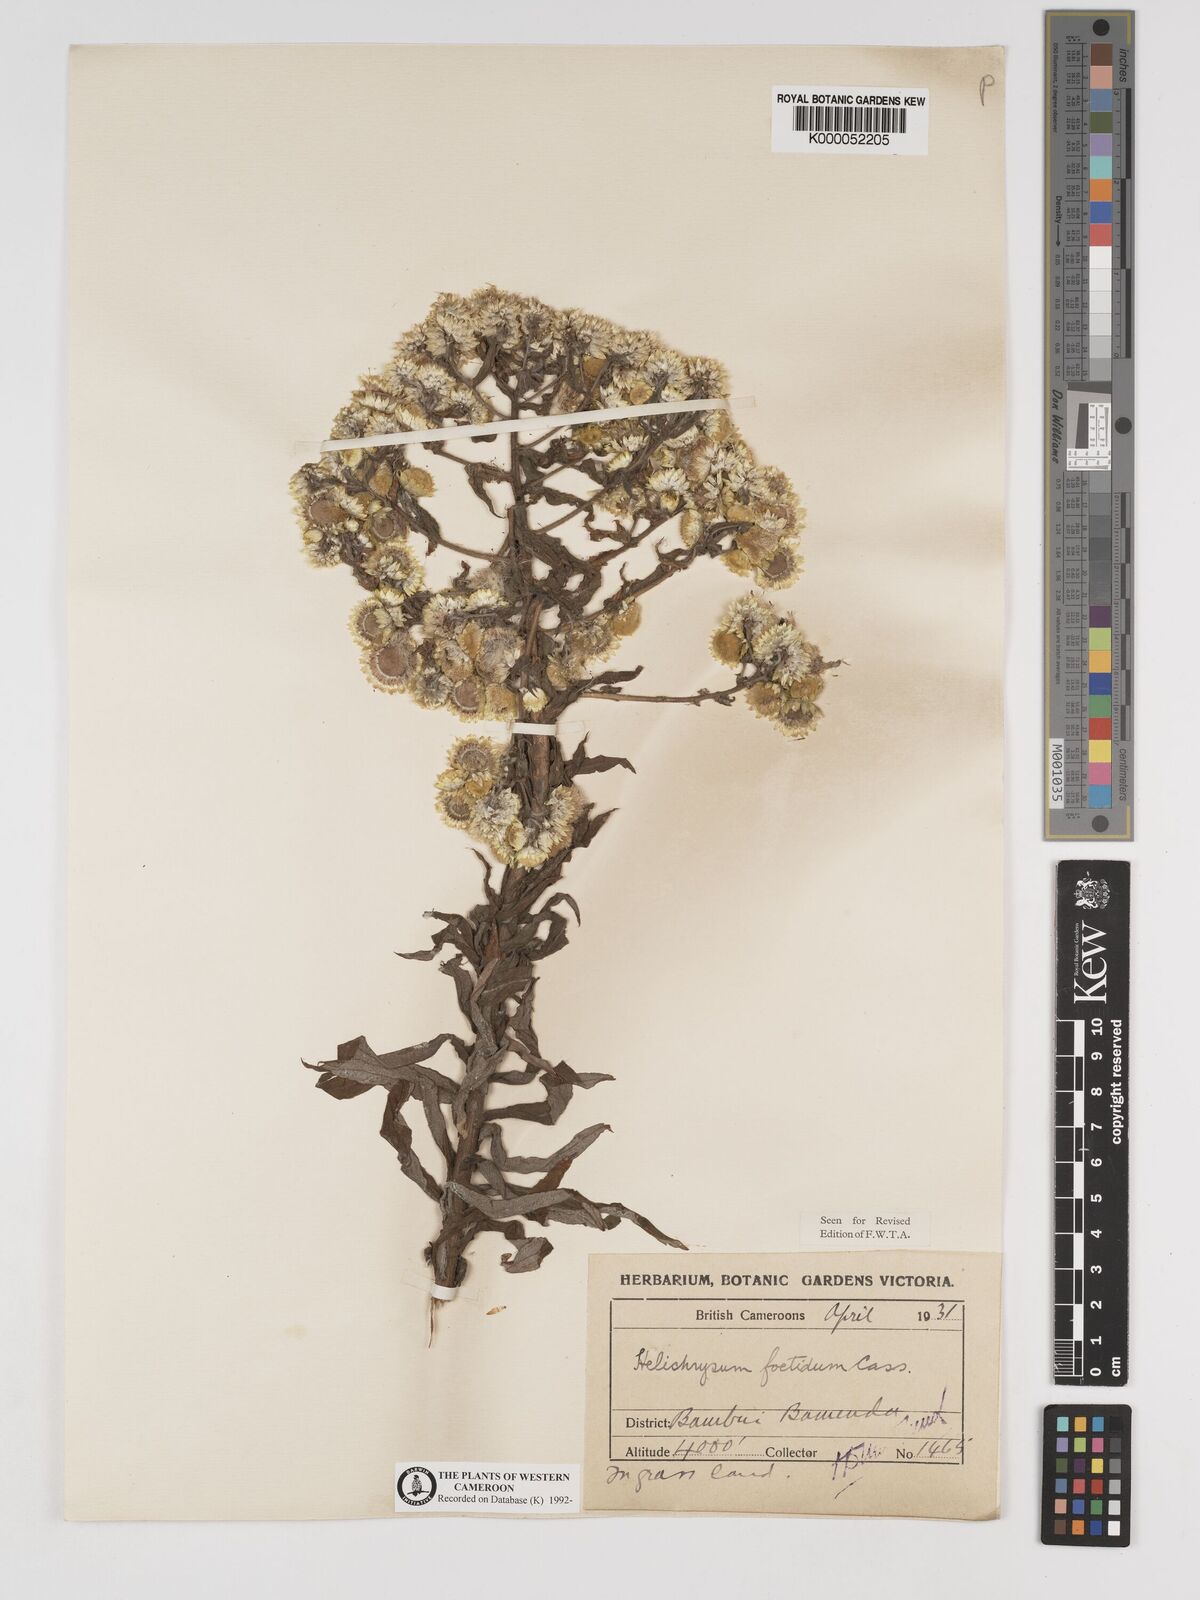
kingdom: Plantae
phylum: Tracheophyta
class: Magnoliopsida
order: Asterales
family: Asteraceae
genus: Helichrysum
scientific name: Helichrysum foetidum
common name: Stinking everlasting
